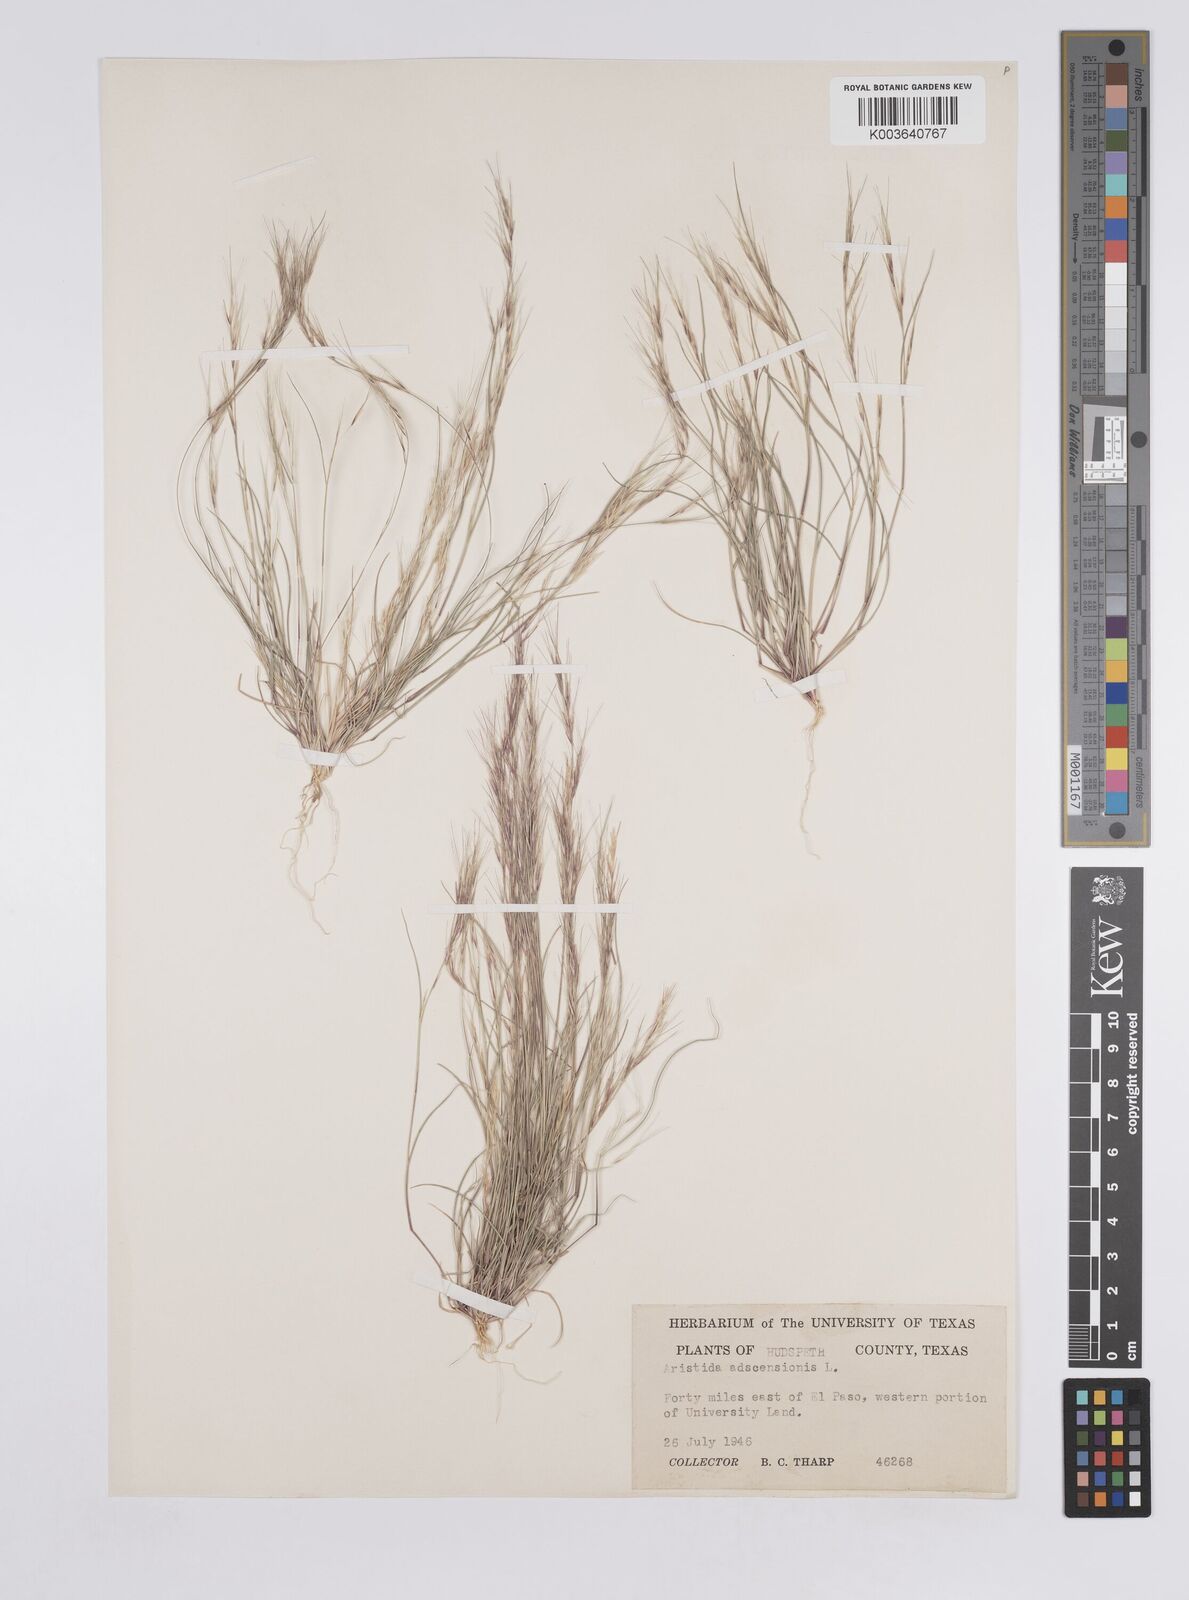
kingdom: Plantae
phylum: Tracheophyta
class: Liliopsida
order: Poales
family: Poaceae
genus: Aristida
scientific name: Aristida adscensionis
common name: Sixweeks threeawn
